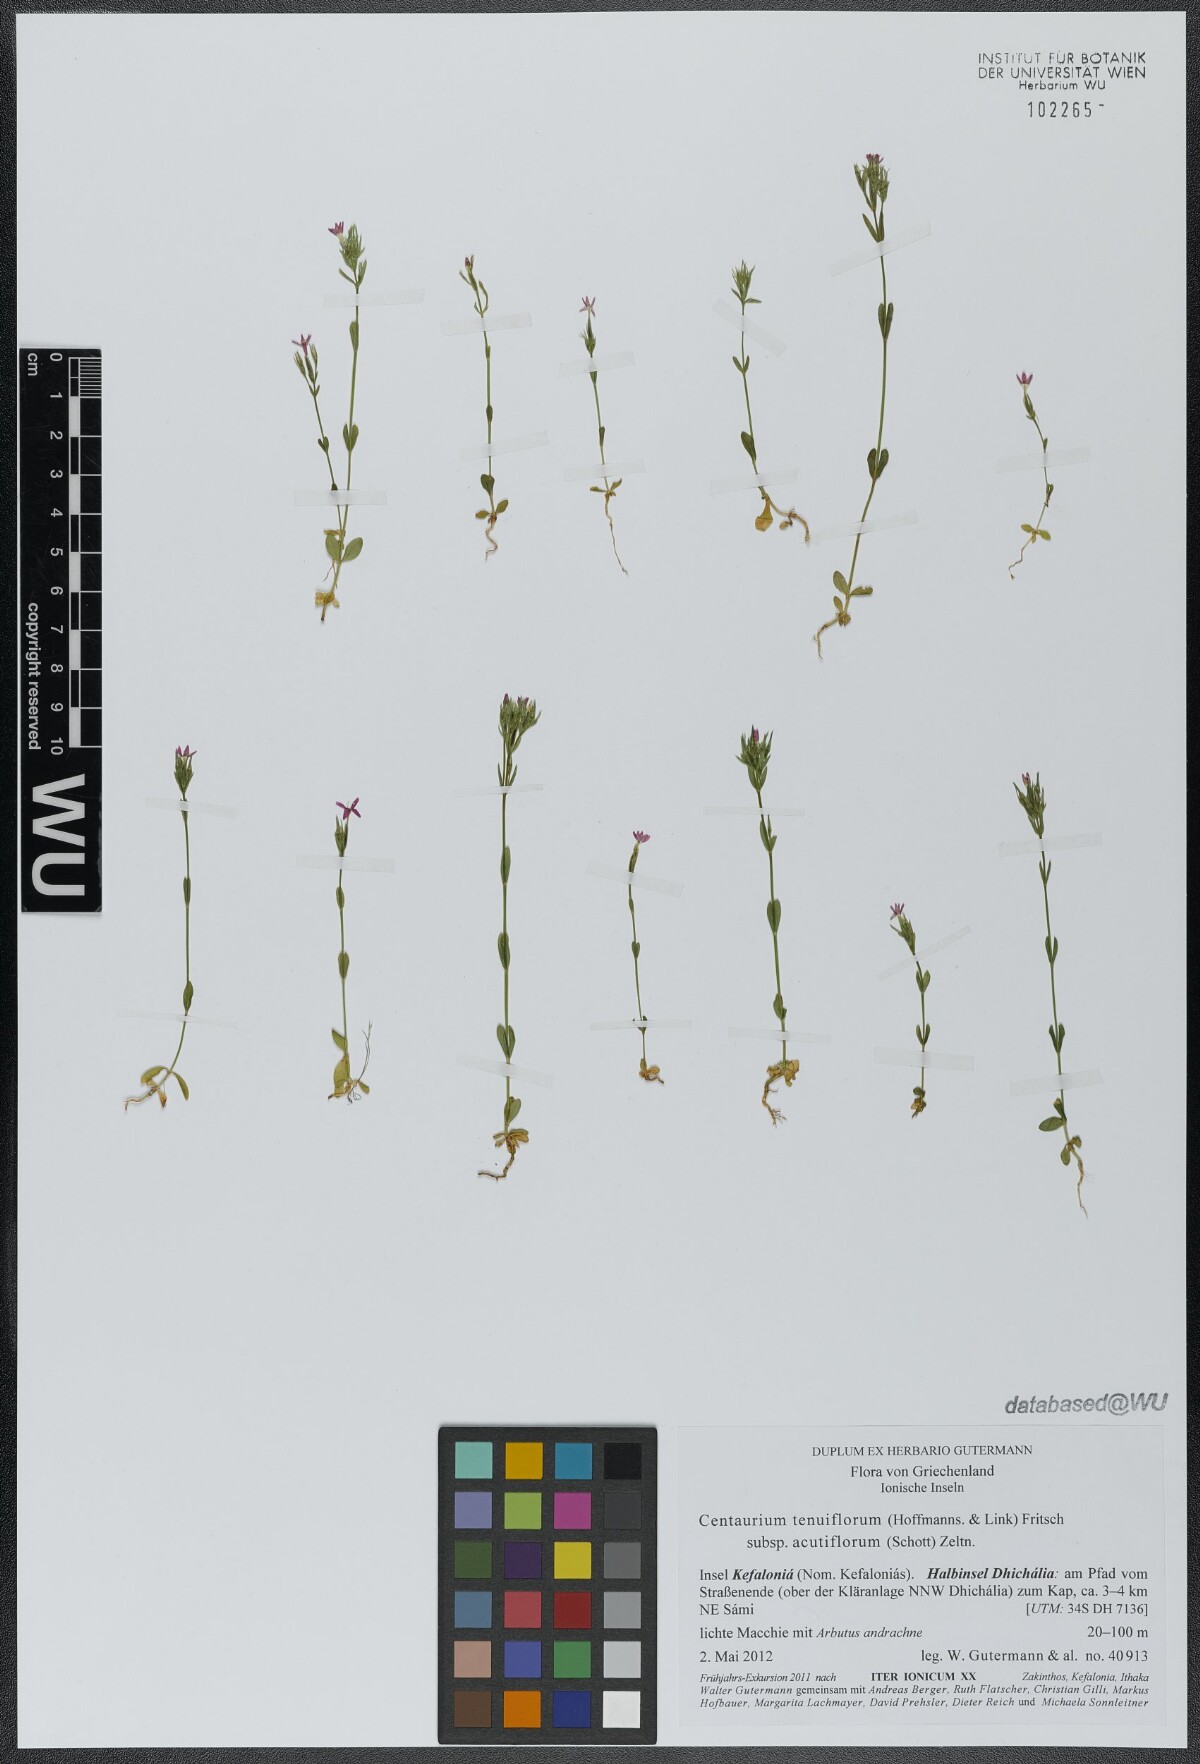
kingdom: Plantae
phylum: Tracheophyta
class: Magnoliopsida
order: Gentianales
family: Gentianaceae
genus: Centaurium
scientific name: Centaurium tenuiflorum
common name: Slender centaury
